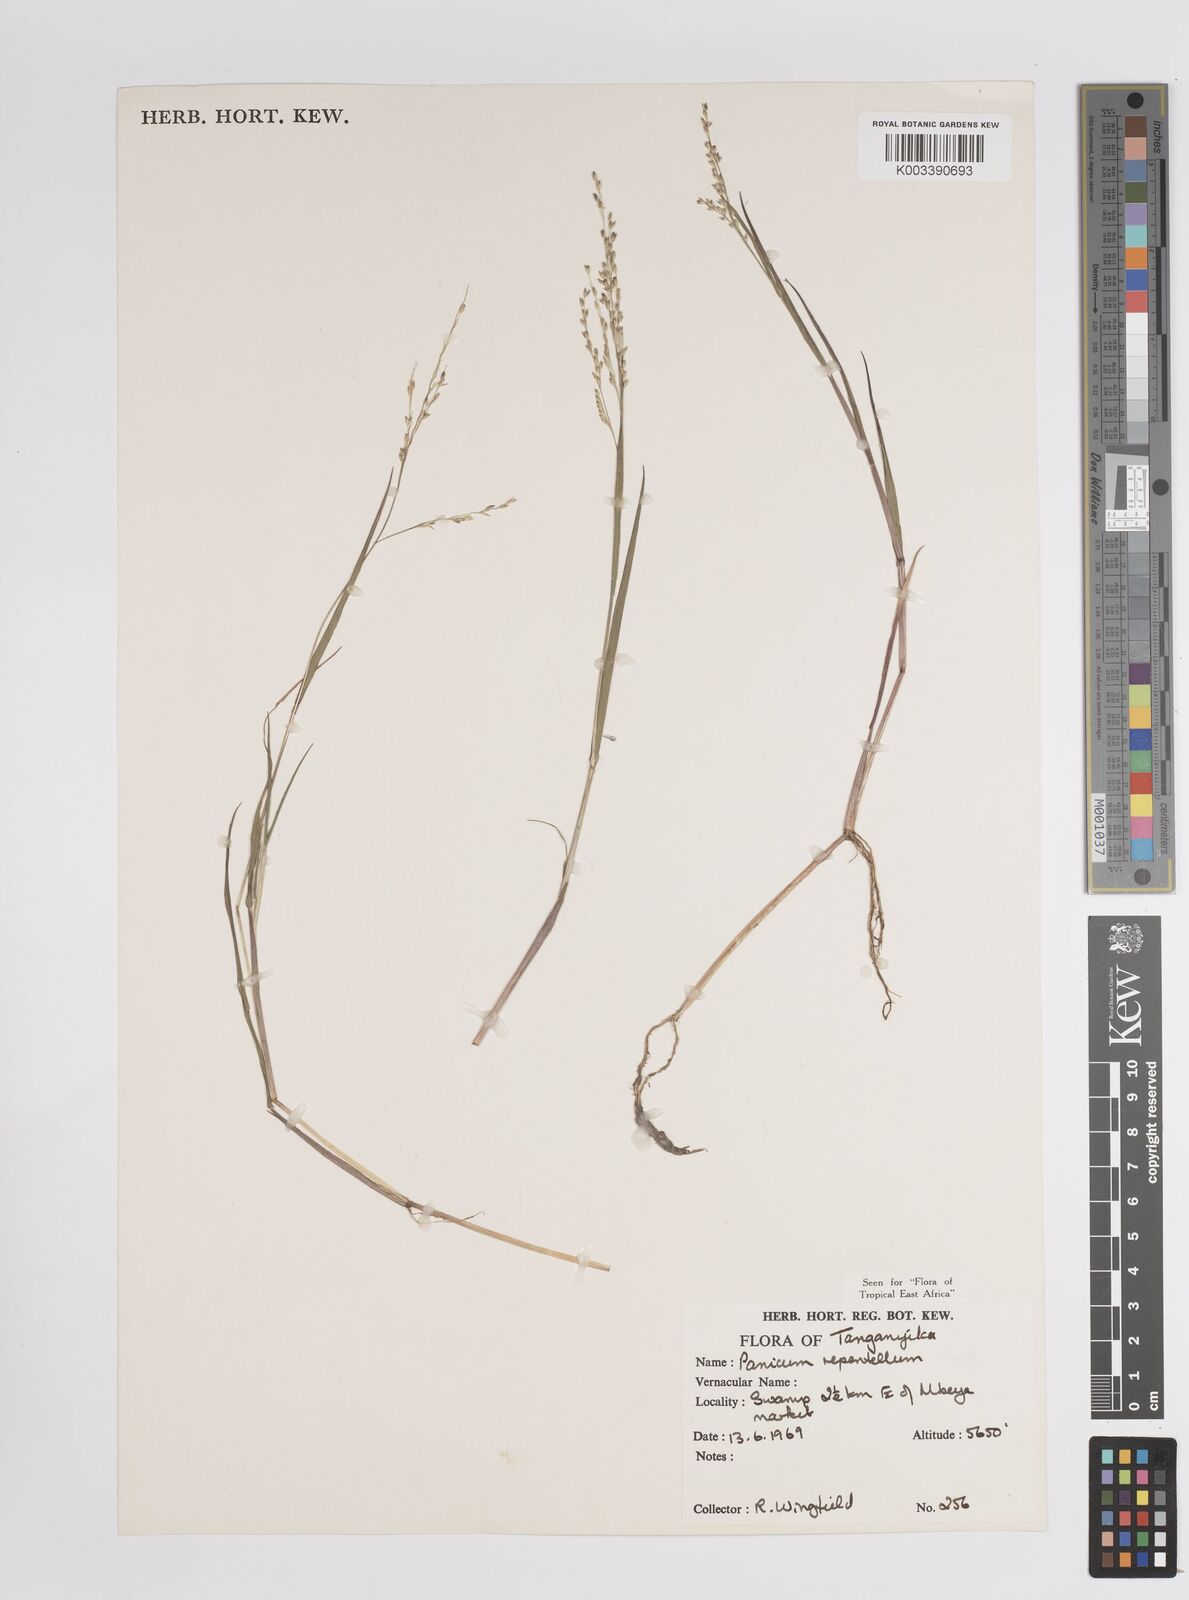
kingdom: Plantae
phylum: Tracheophyta
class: Liliopsida
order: Poales
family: Poaceae
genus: Panicum
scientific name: Panicum hygrocharis
